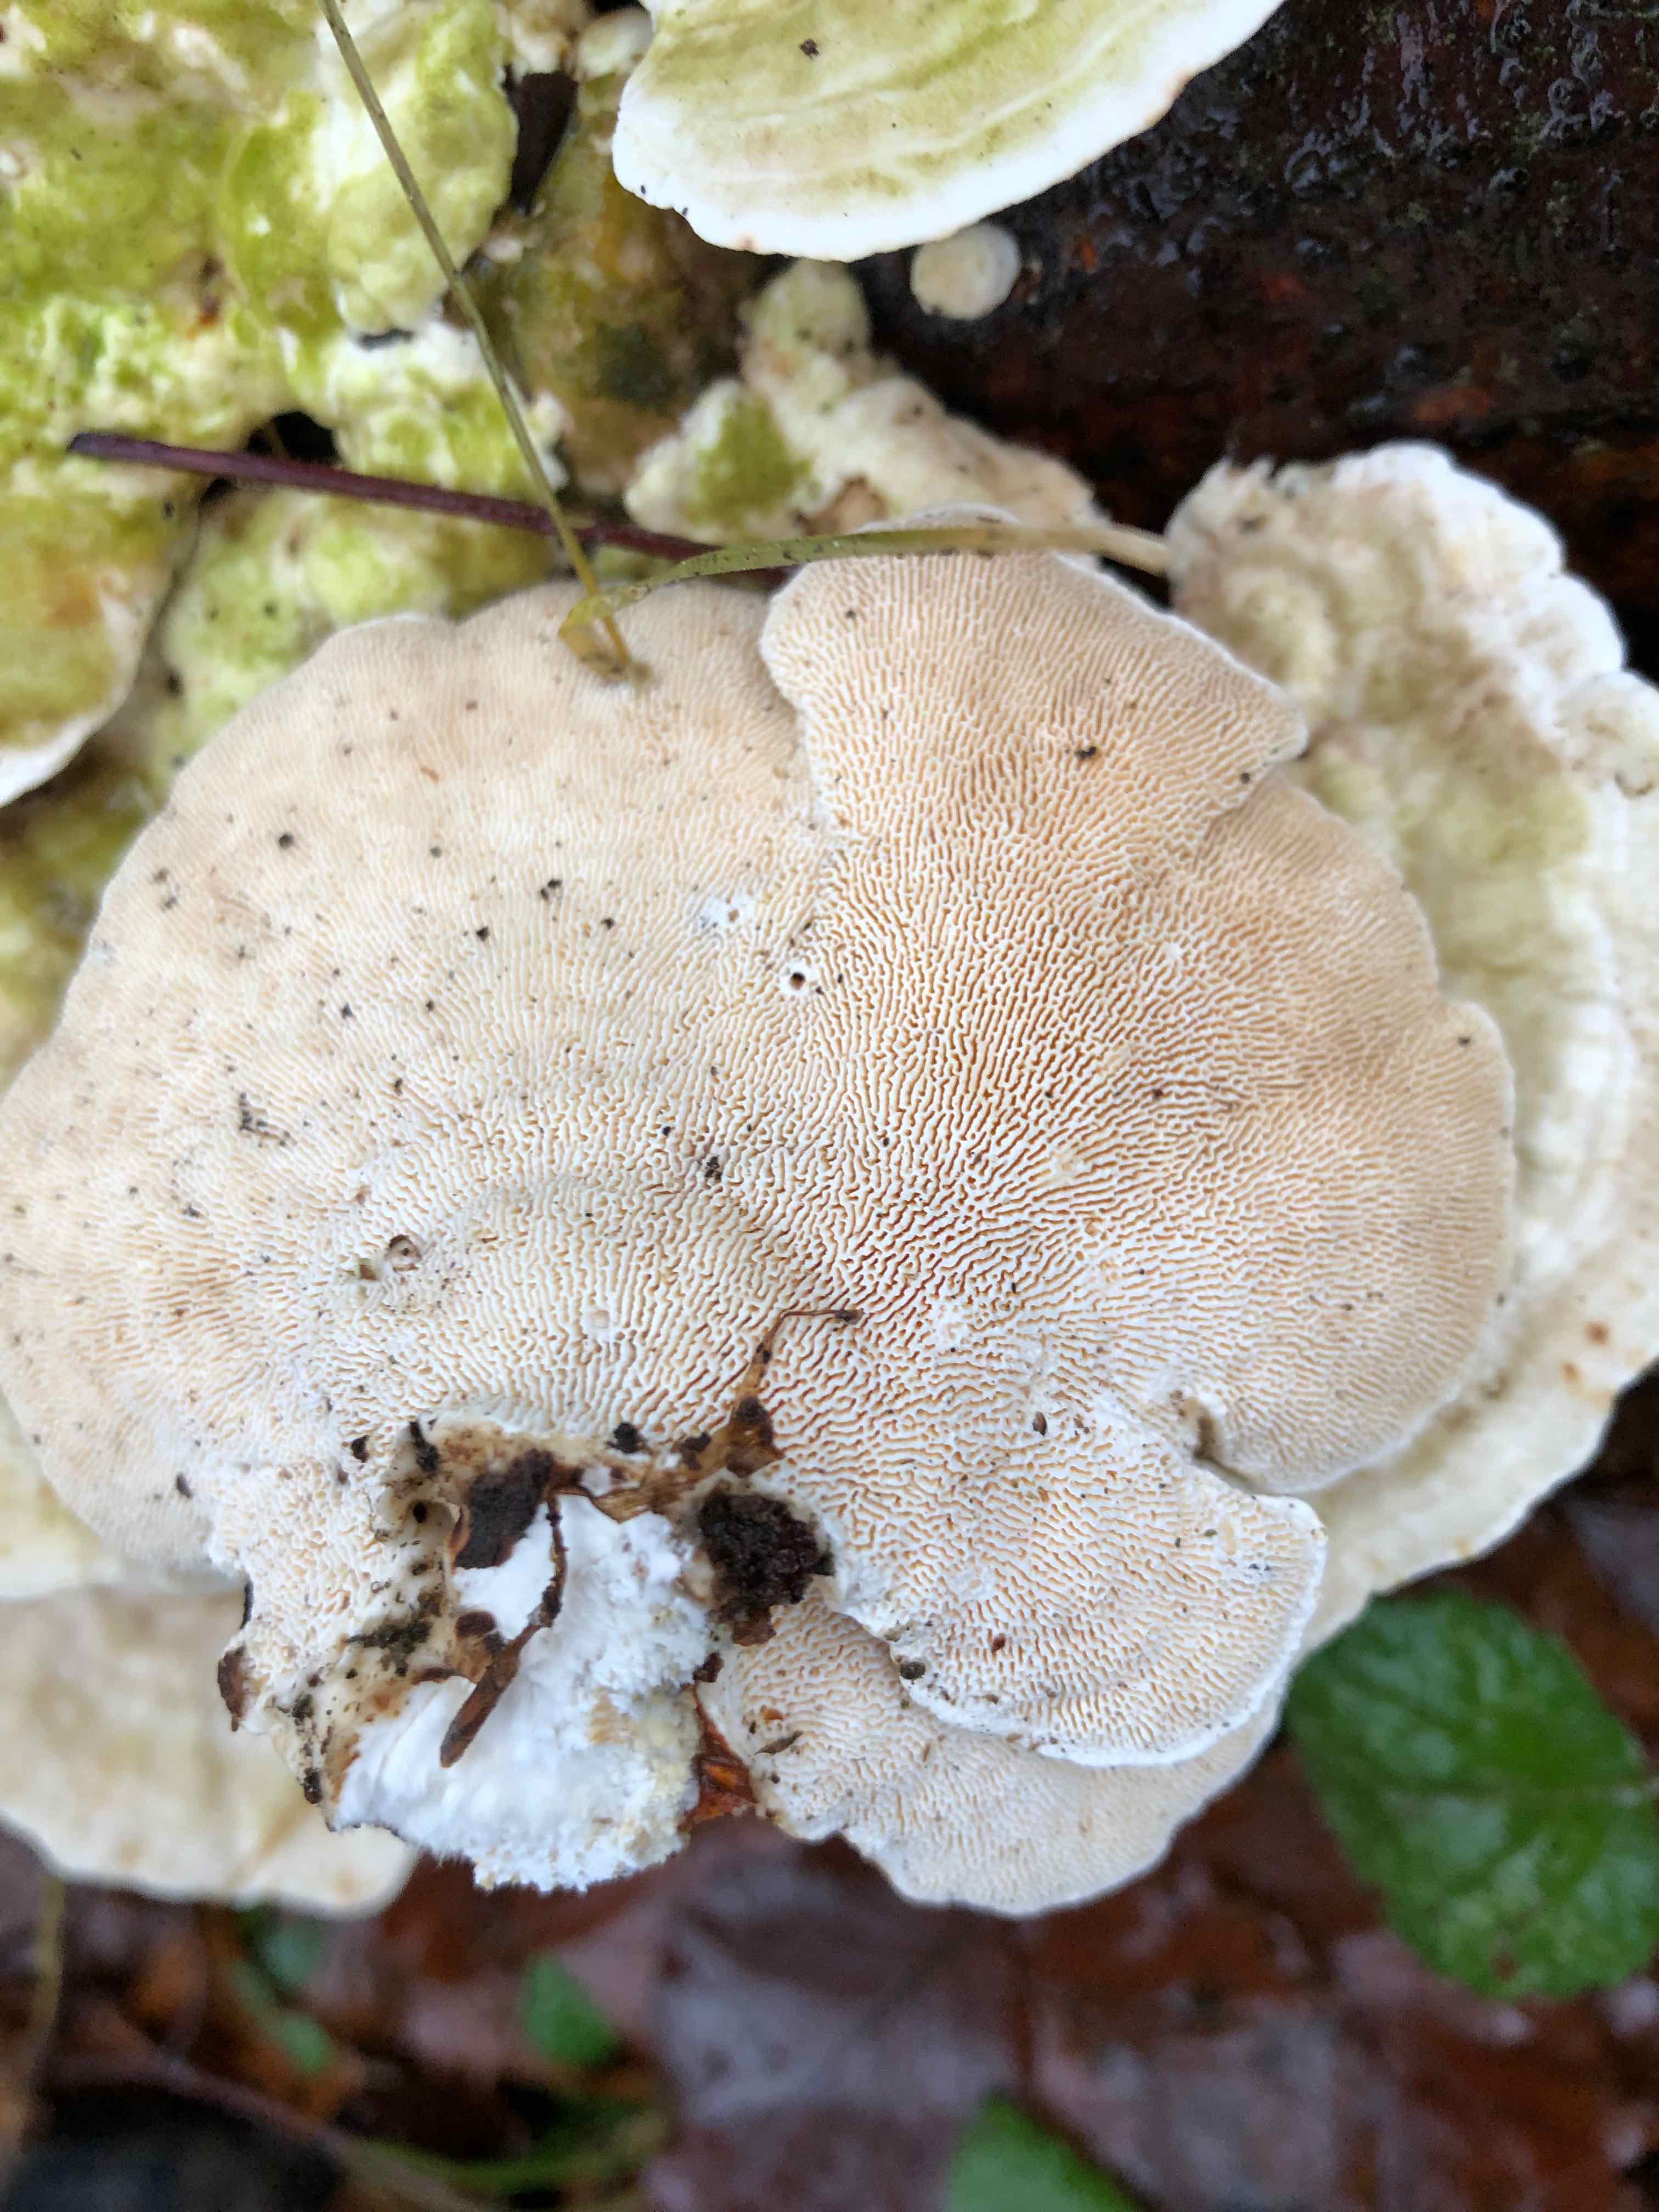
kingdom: Fungi
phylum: Basidiomycota
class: Agaricomycetes
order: Polyporales
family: Polyporaceae
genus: Trametes
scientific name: Trametes gibbosa
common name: puklet læderporesvamp
